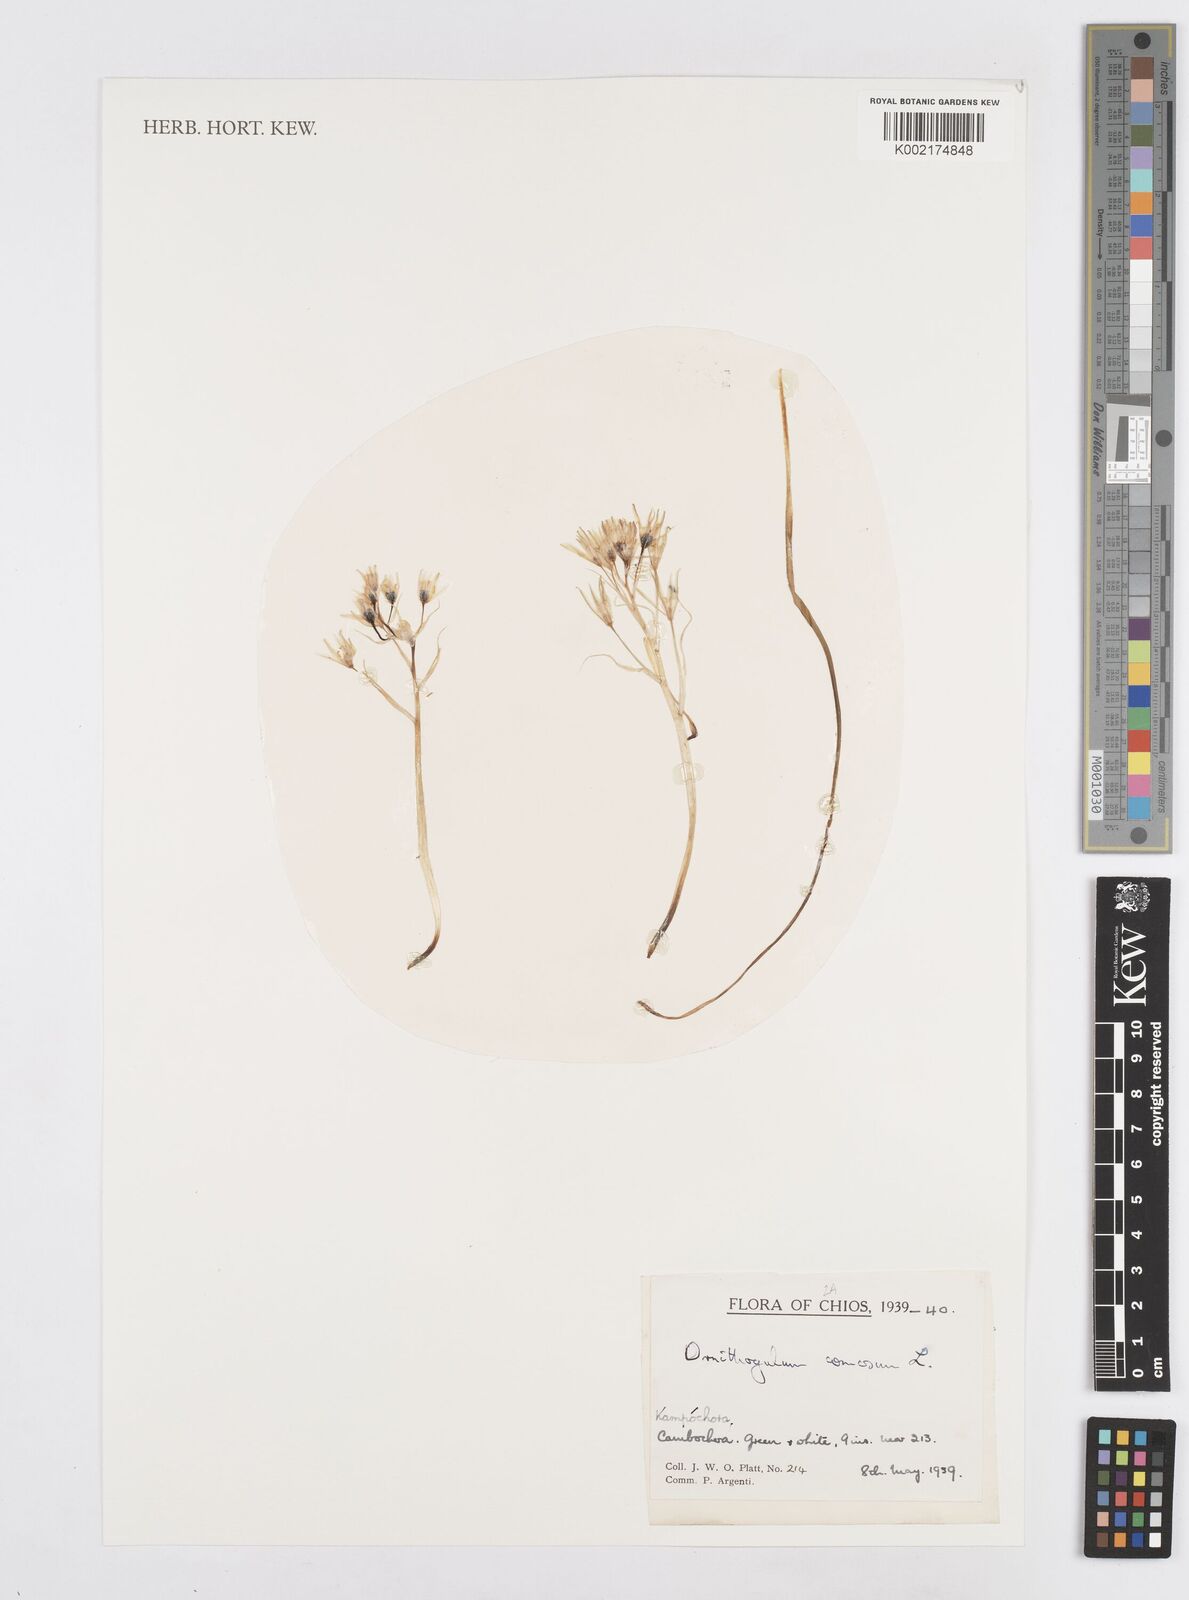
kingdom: Plantae
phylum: Tracheophyta
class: Liliopsida
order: Asparagales
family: Asparagaceae
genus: Ornithogalum
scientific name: Ornithogalum comosum
